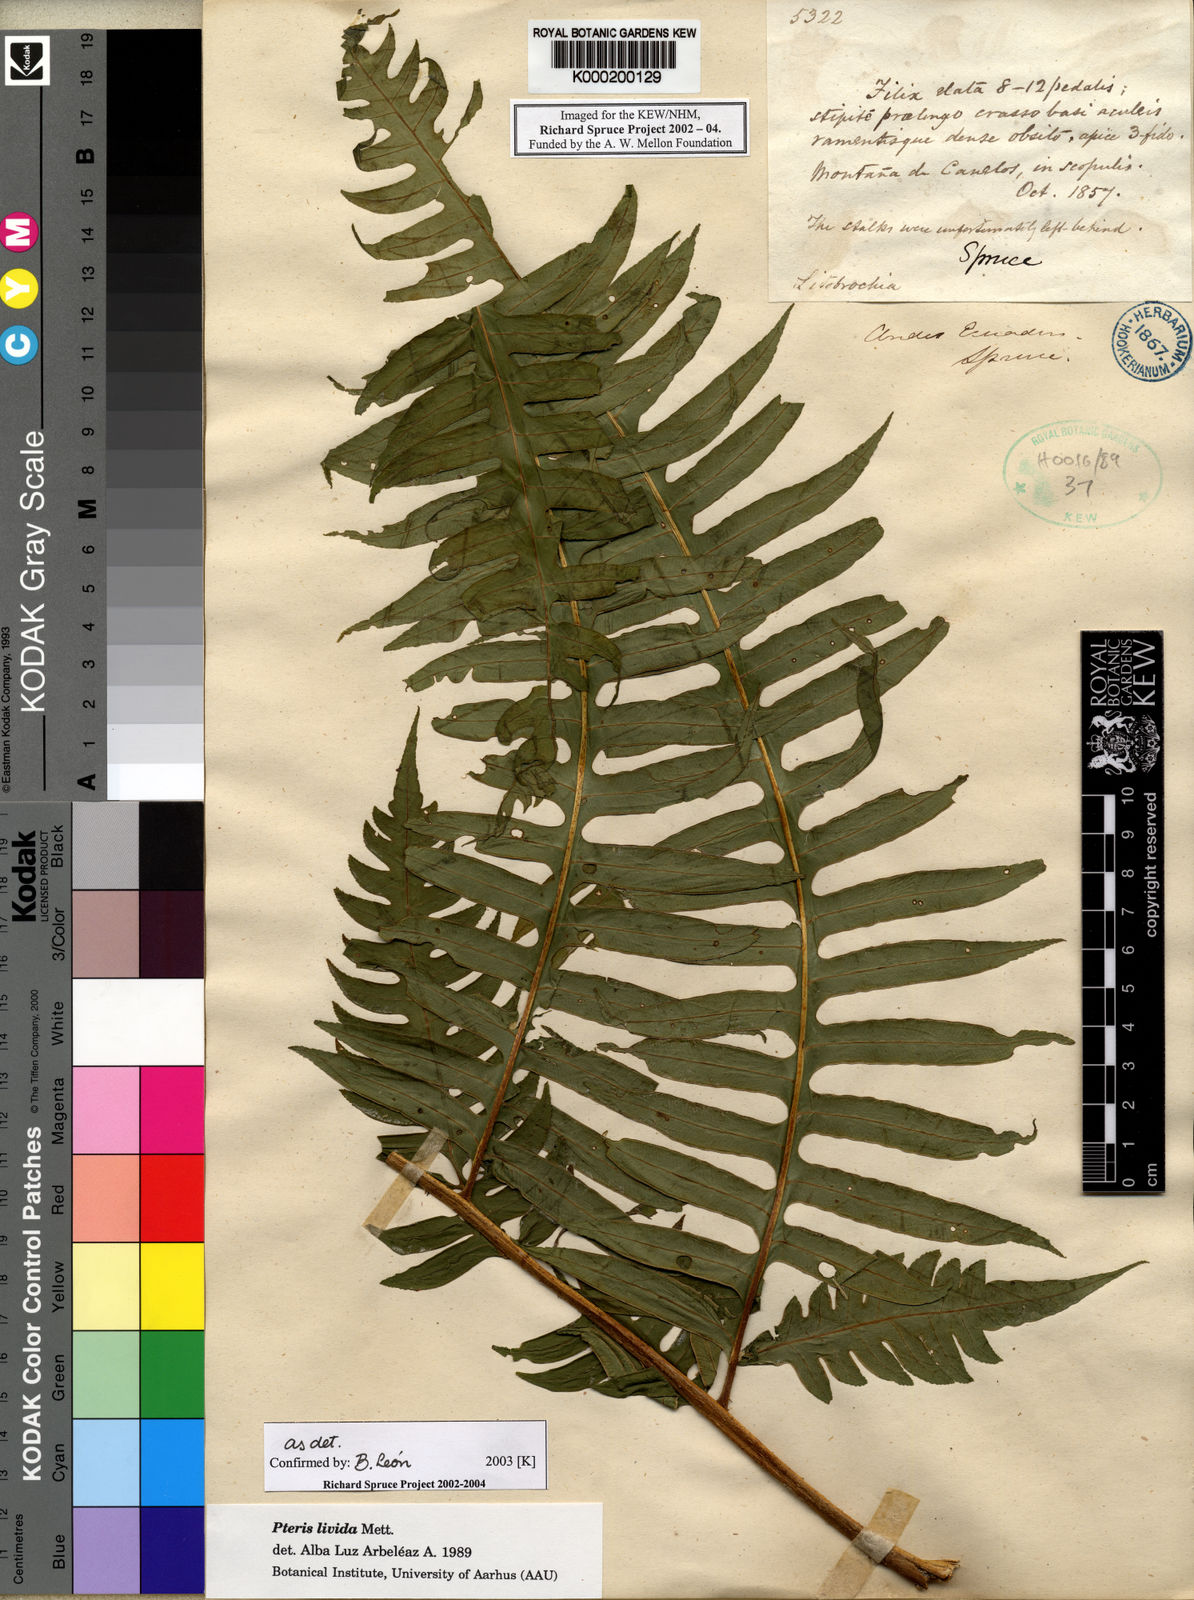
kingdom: Plantae
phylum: Tracheophyta
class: Polypodiopsida
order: Polypodiales
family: Pteridaceae
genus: Pteris
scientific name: Pteris livida
